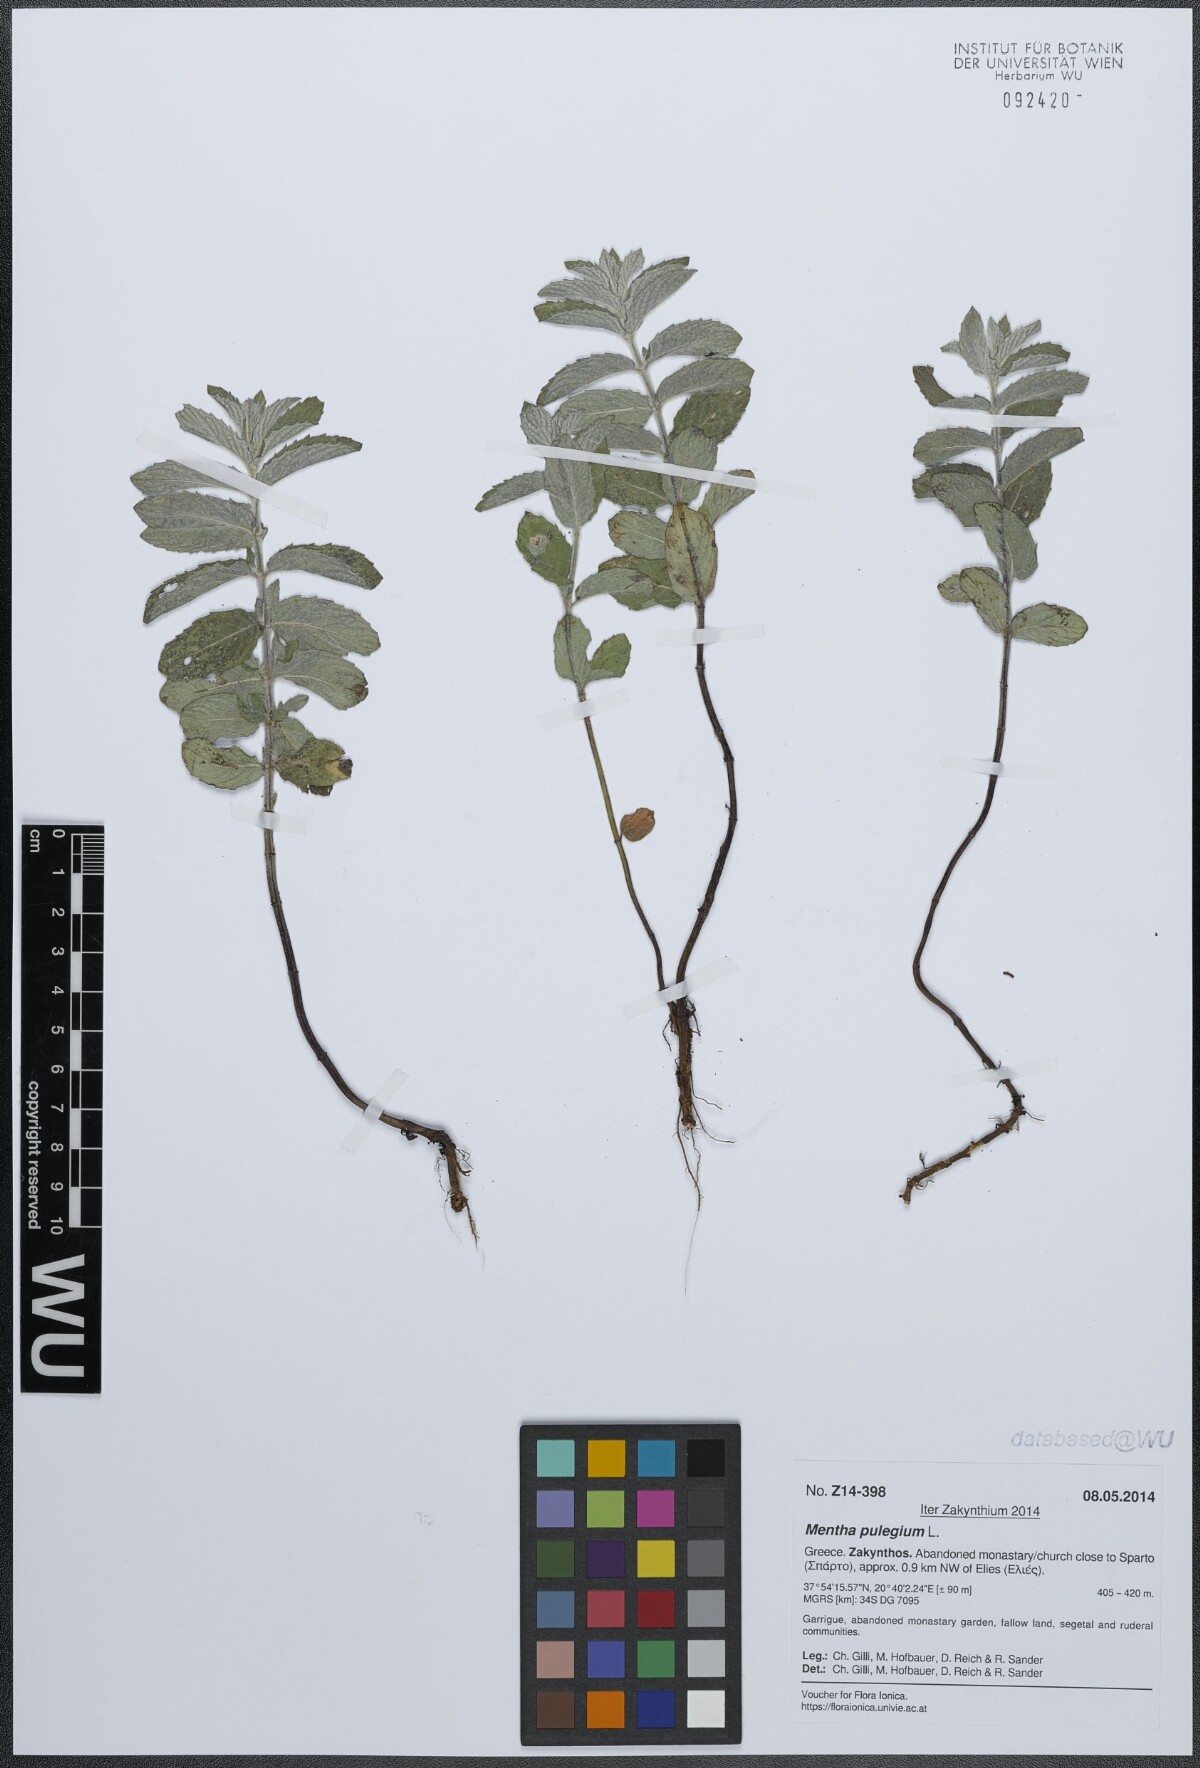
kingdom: Plantae
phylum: Tracheophyta
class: Magnoliopsida
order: Lamiales
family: Lamiaceae
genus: Mentha
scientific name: Mentha pulegium
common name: Pennyroyal
